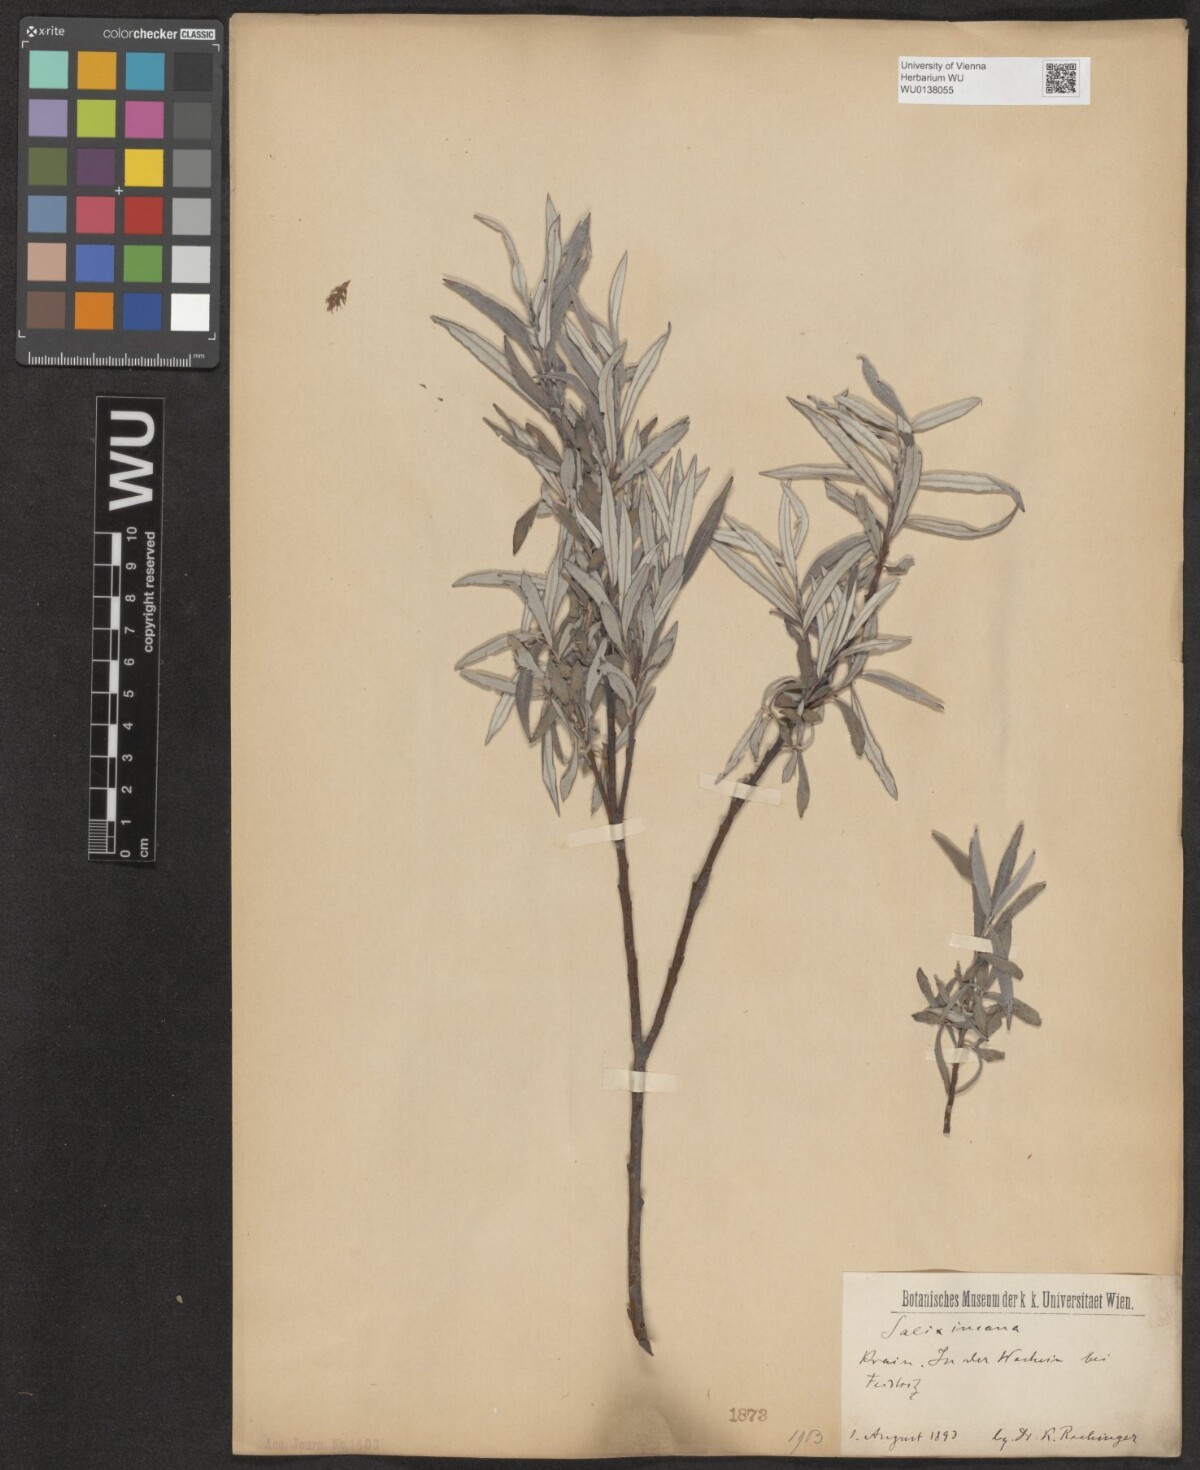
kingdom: Plantae
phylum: Tracheophyta
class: Magnoliopsida
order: Malpighiales
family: Salicaceae
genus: Salix
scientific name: Salix eleagnos
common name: Elaeagnus willow
